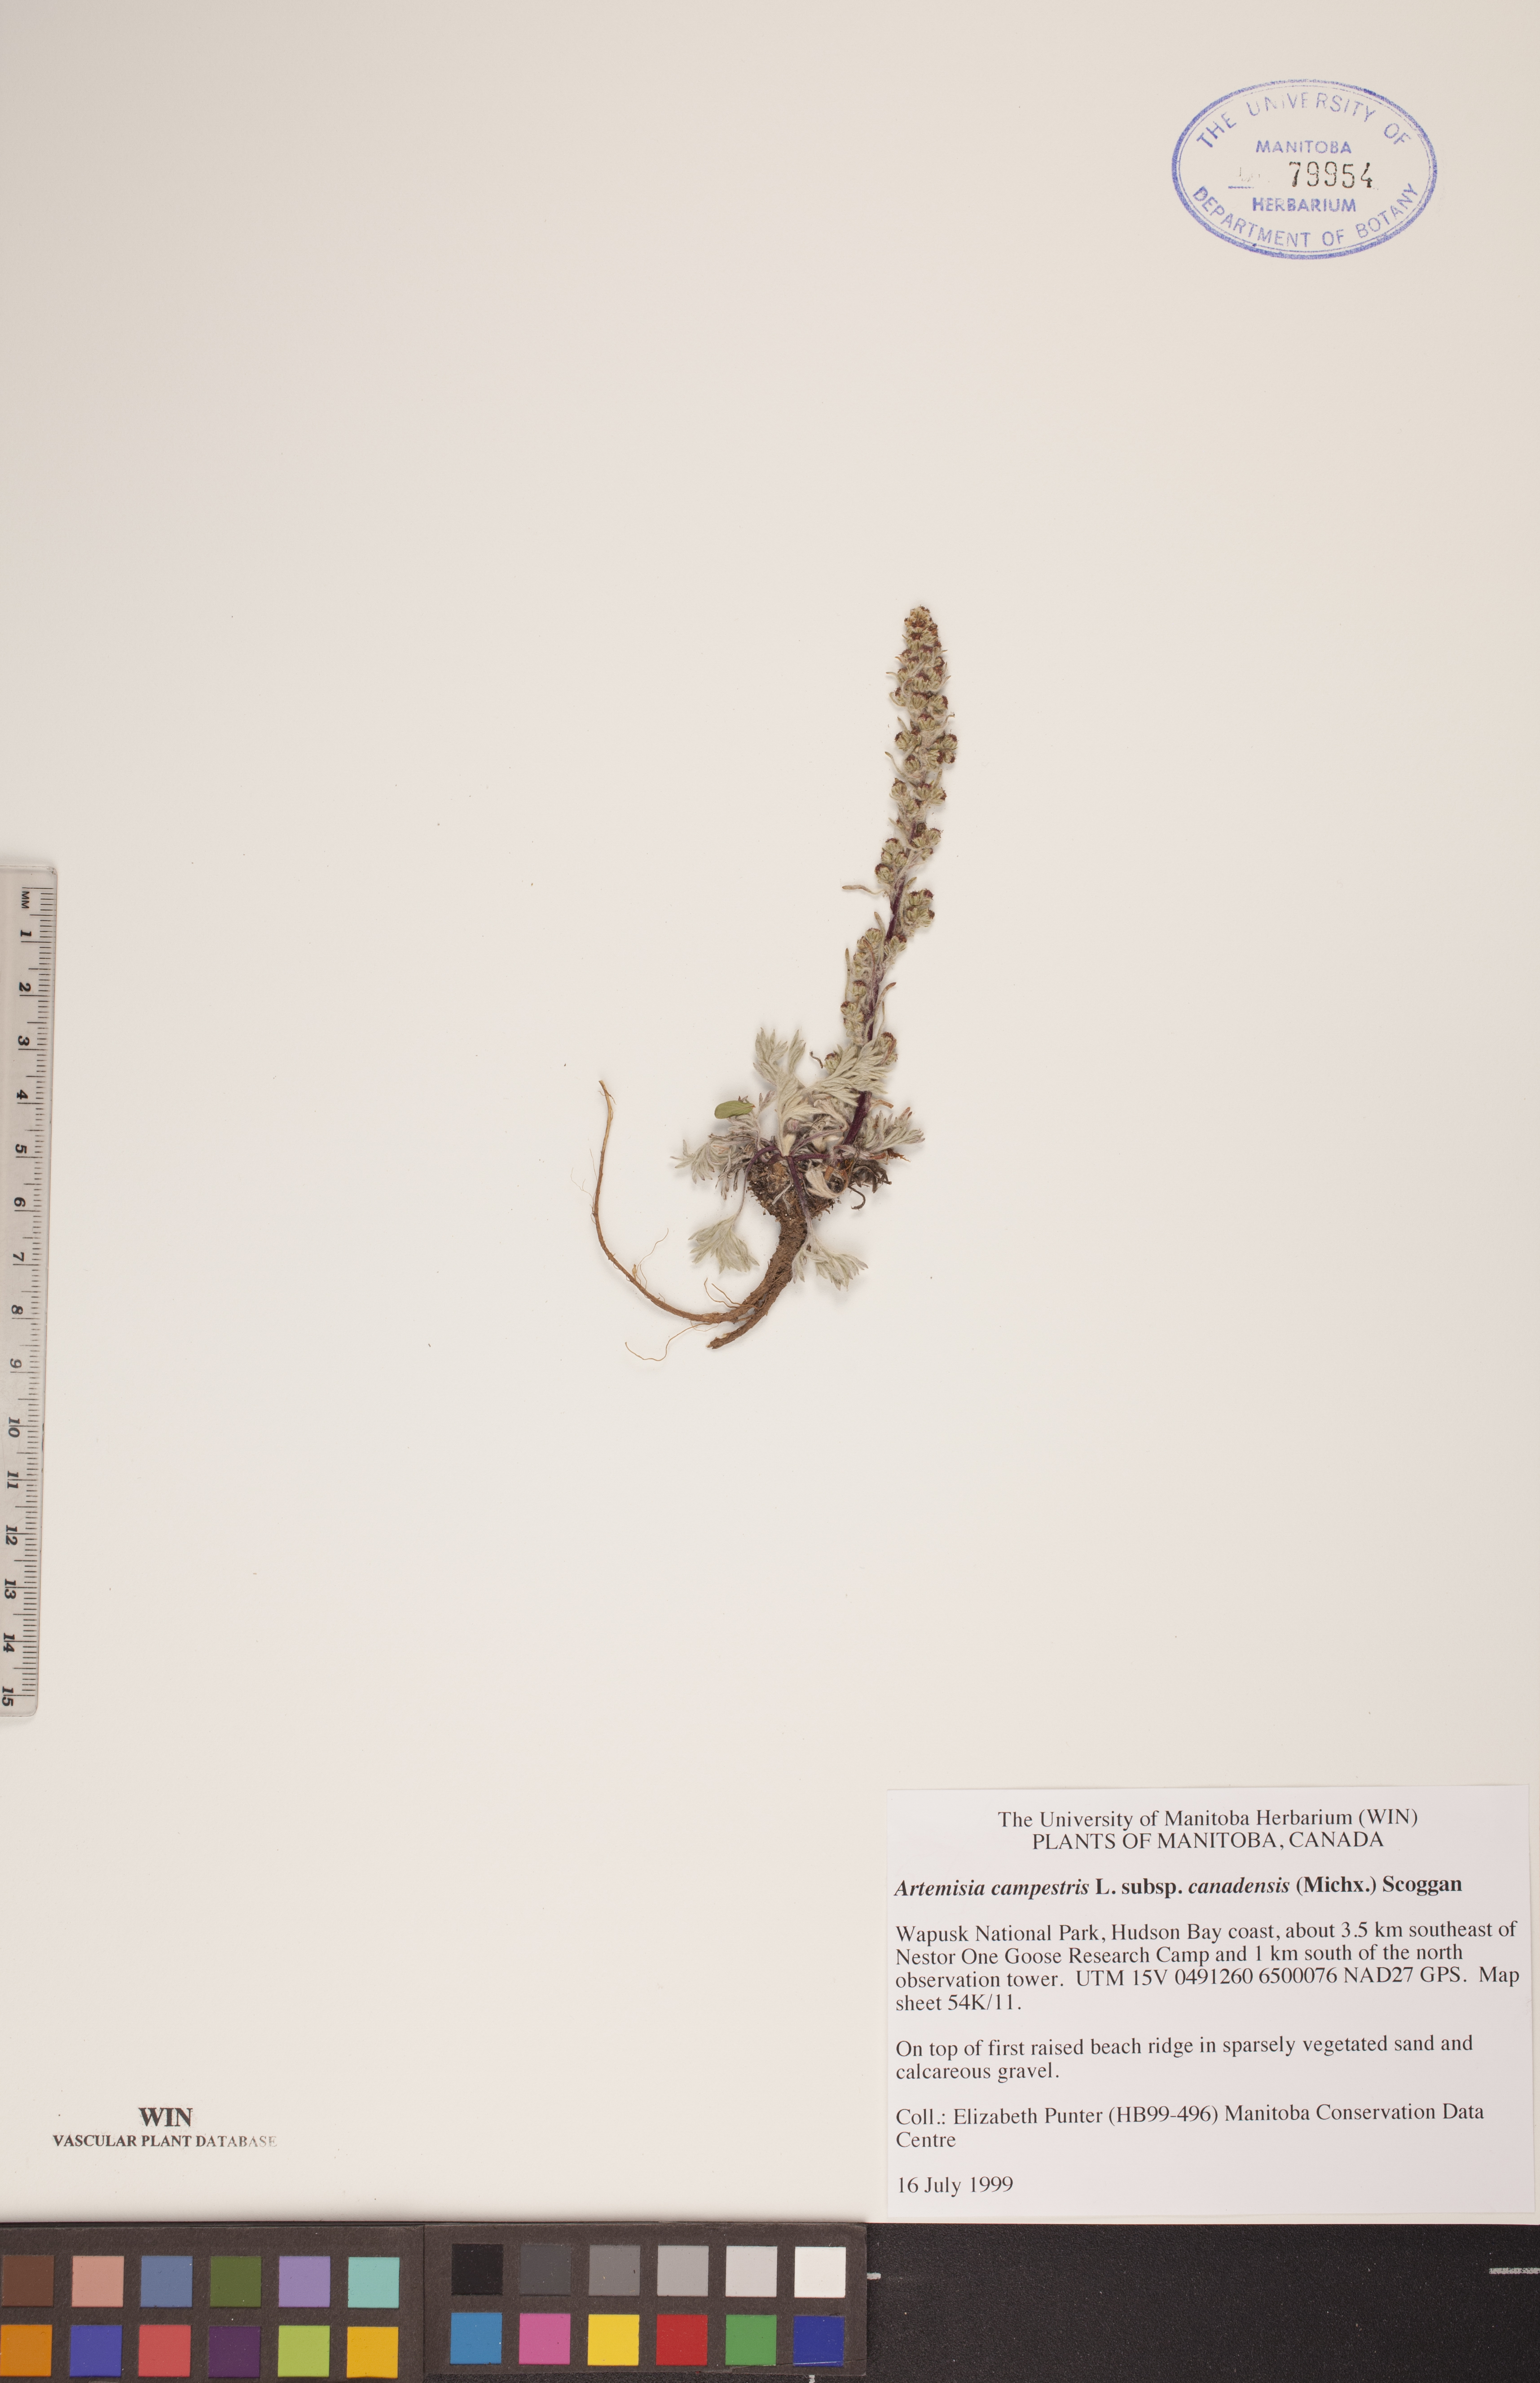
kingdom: Plantae
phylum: Tracheophyta
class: Magnoliopsida
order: Asterales
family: Asteraceae
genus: Artemisia
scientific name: Artemisia campestris
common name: Field wormwood
